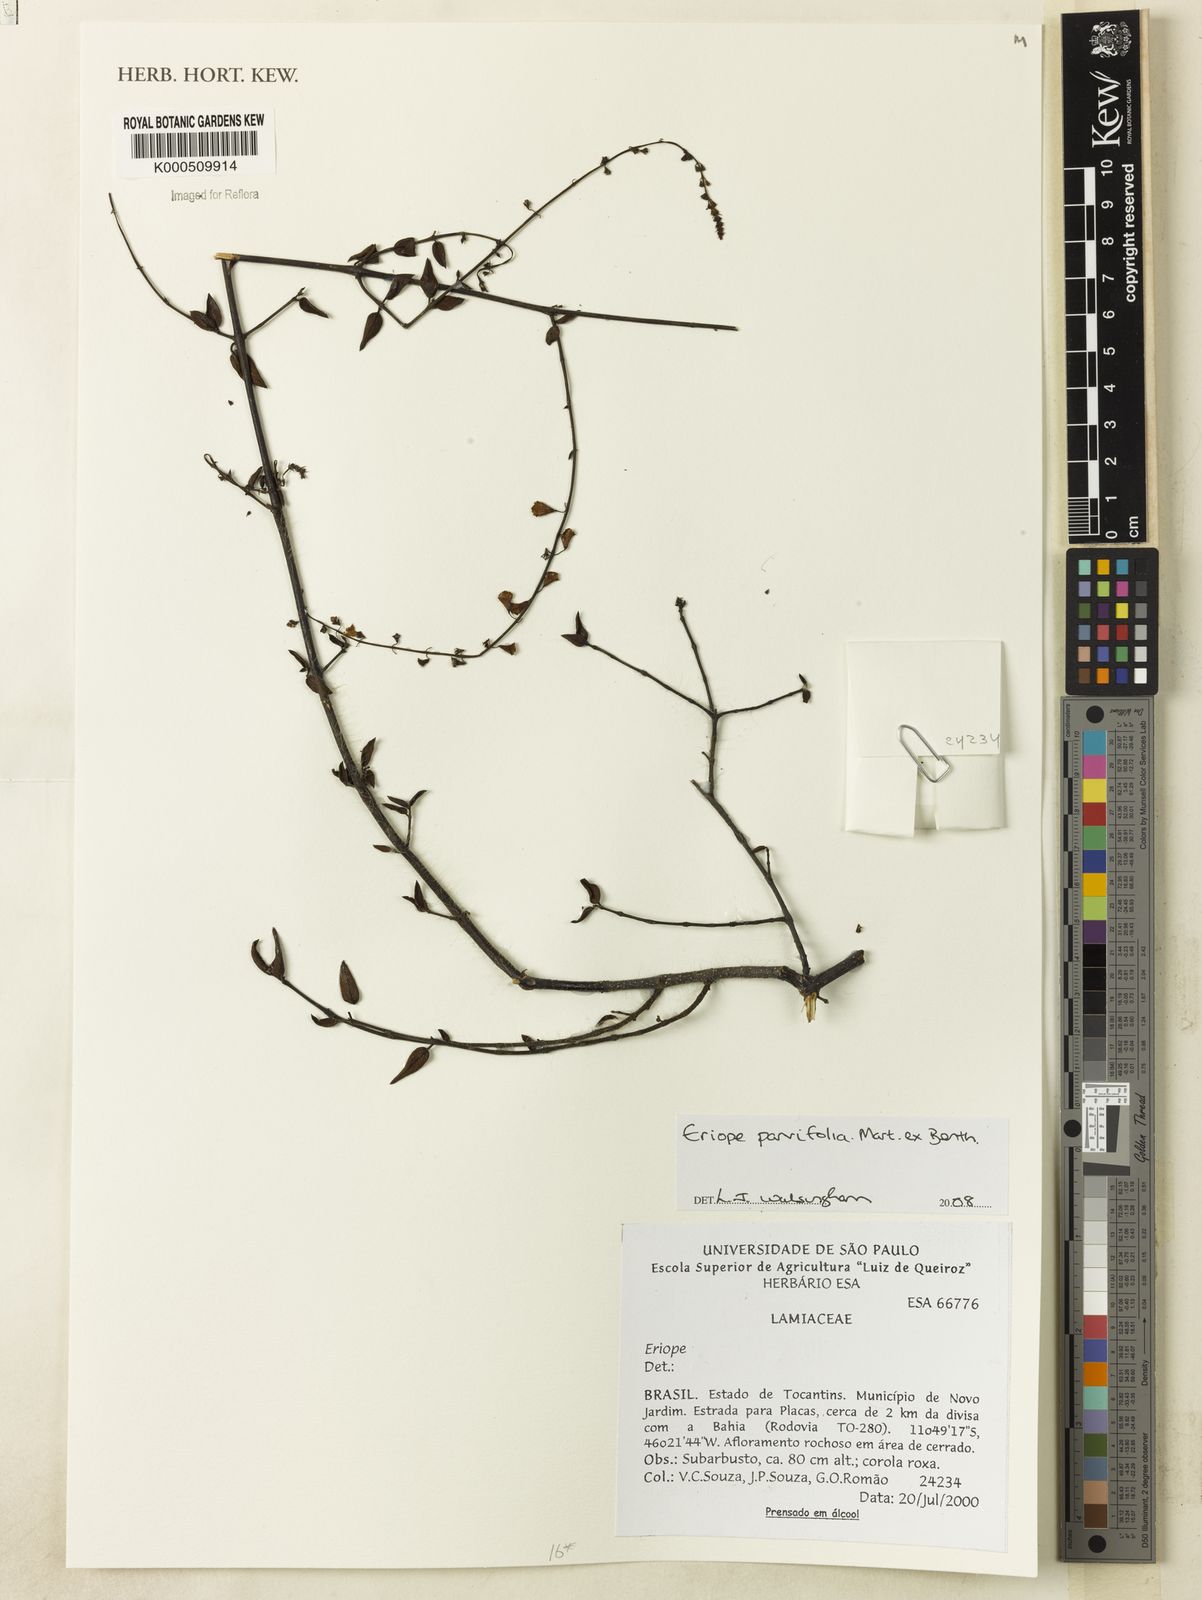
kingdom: Plantae
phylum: Tracheophyta
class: Magnoliopsida
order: Lamiales
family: Lamiaceae
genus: Eriope
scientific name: Eriope parvifolia
